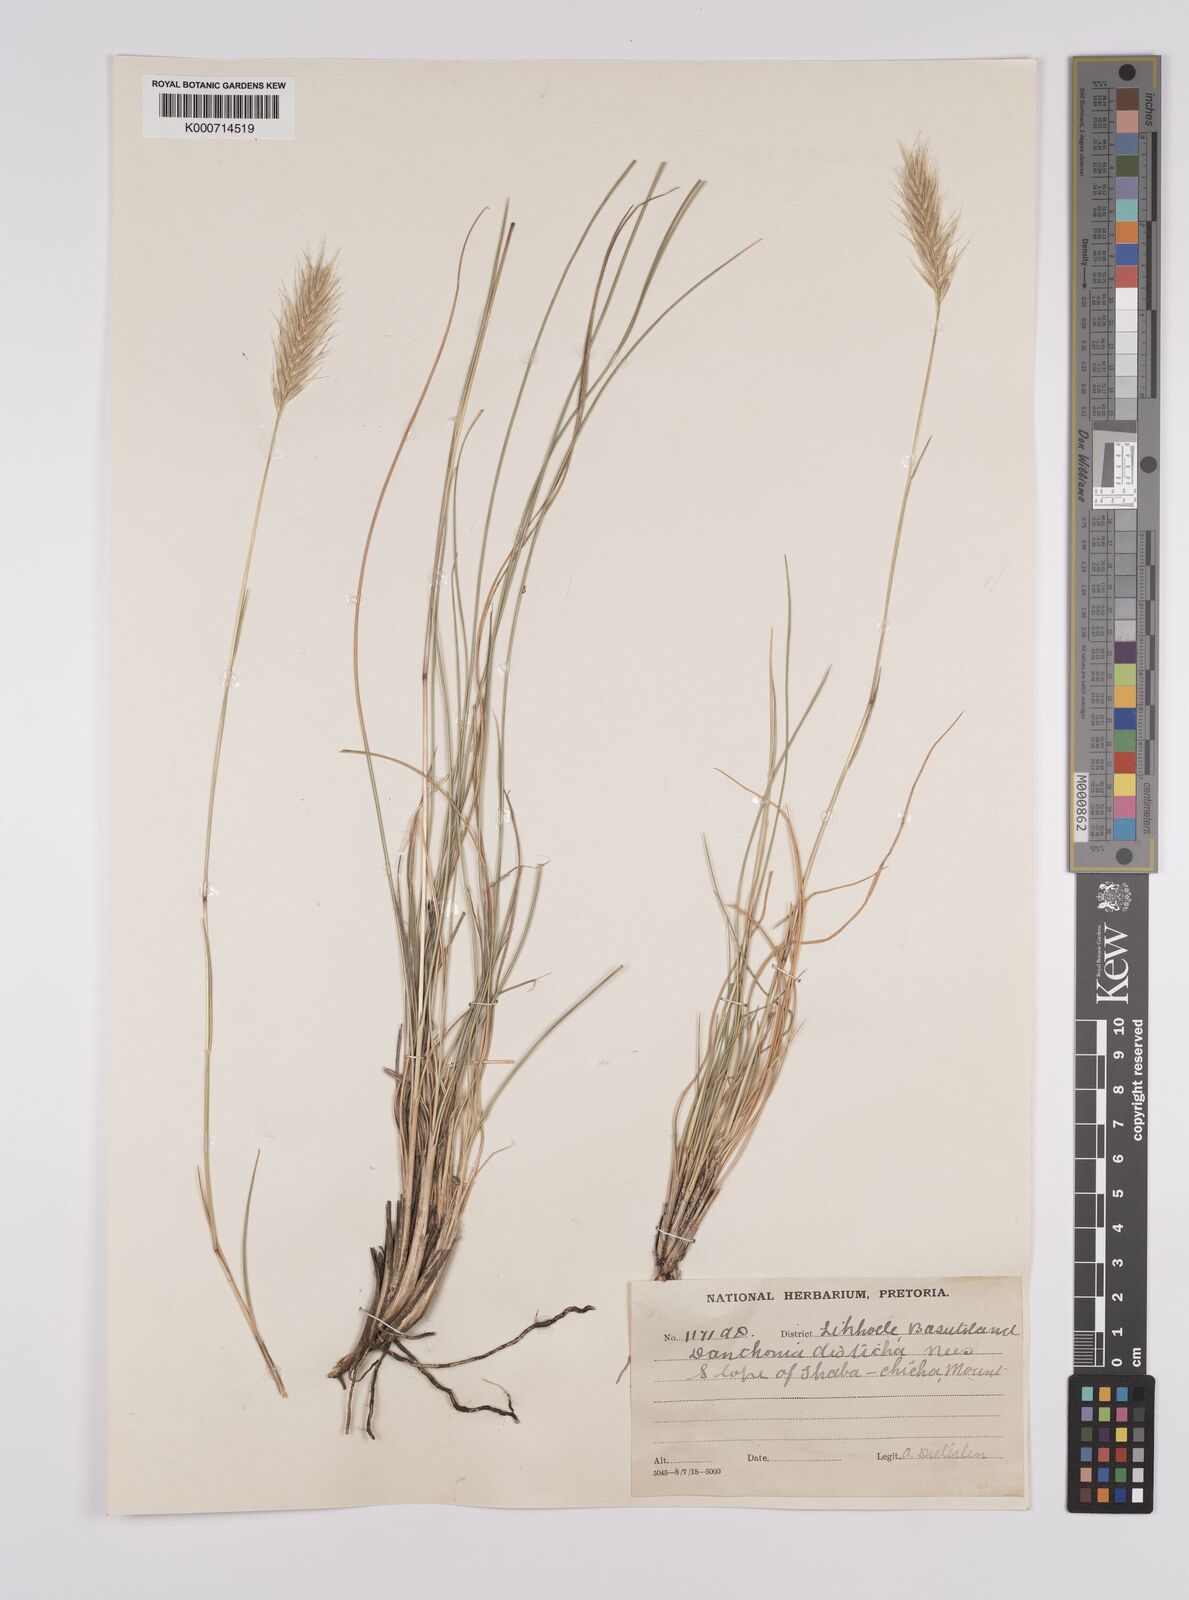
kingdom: Plantae
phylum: Tracheophyta
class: Liliopsida
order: Poales
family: Poaceae
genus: Tenaxia
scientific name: Tenaxia disticha
